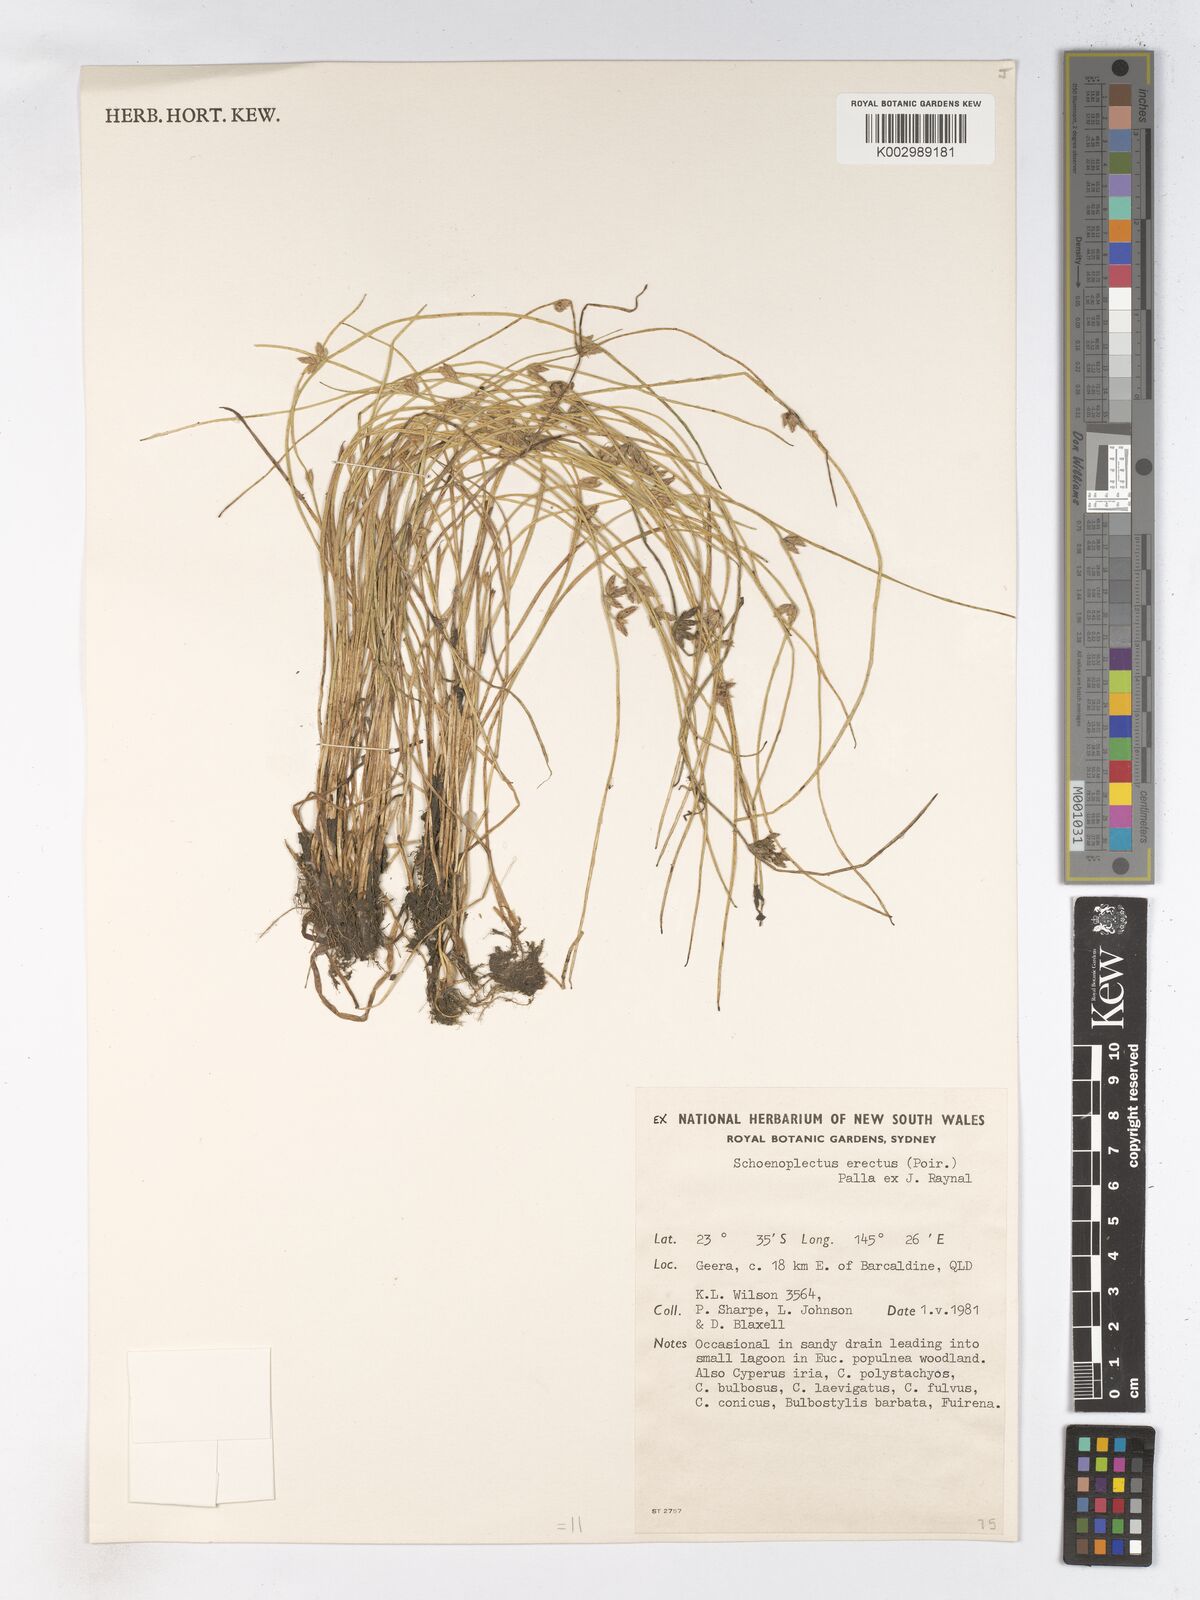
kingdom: Plantae
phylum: Tracheophyta
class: Liliopsida
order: Poales
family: Cyperaceae
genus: Schoenoplectiella
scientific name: Schoenoplectiella erecta
